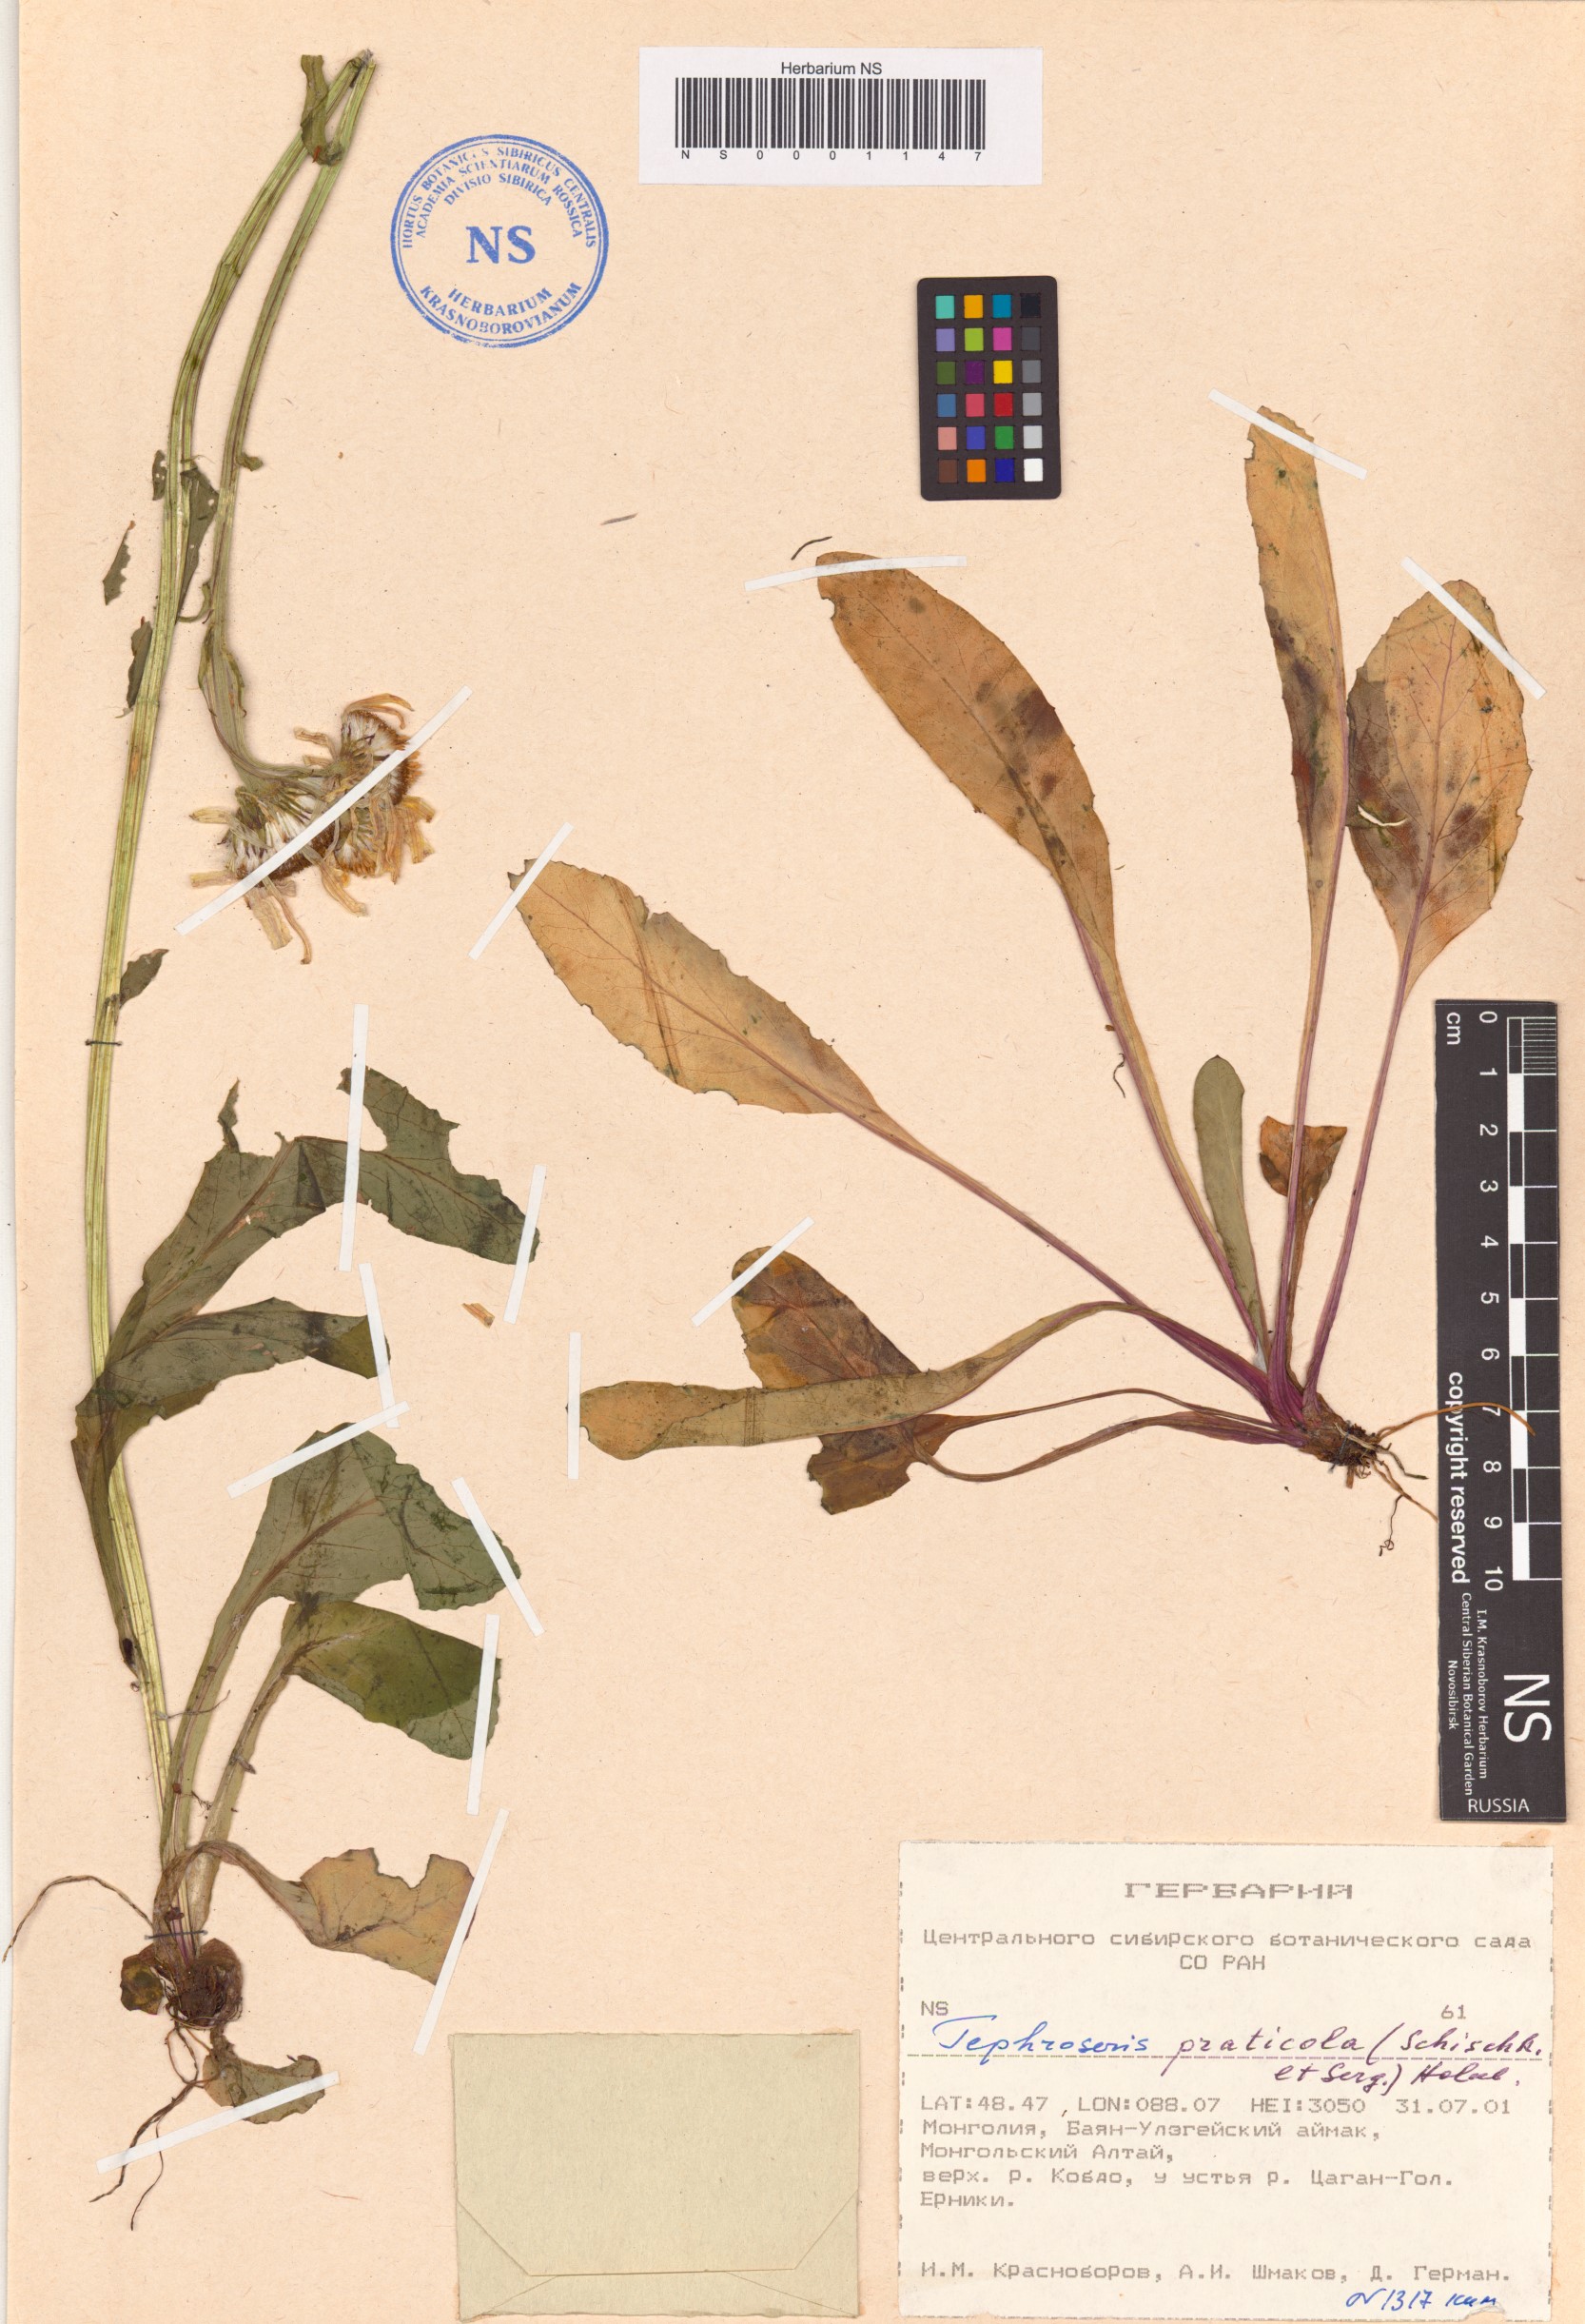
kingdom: Plantae
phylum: Tracheophyta
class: Magnoliopsida
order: Asterales
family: Asteraceae
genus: Tephroseris
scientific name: Tephroseris praticola
